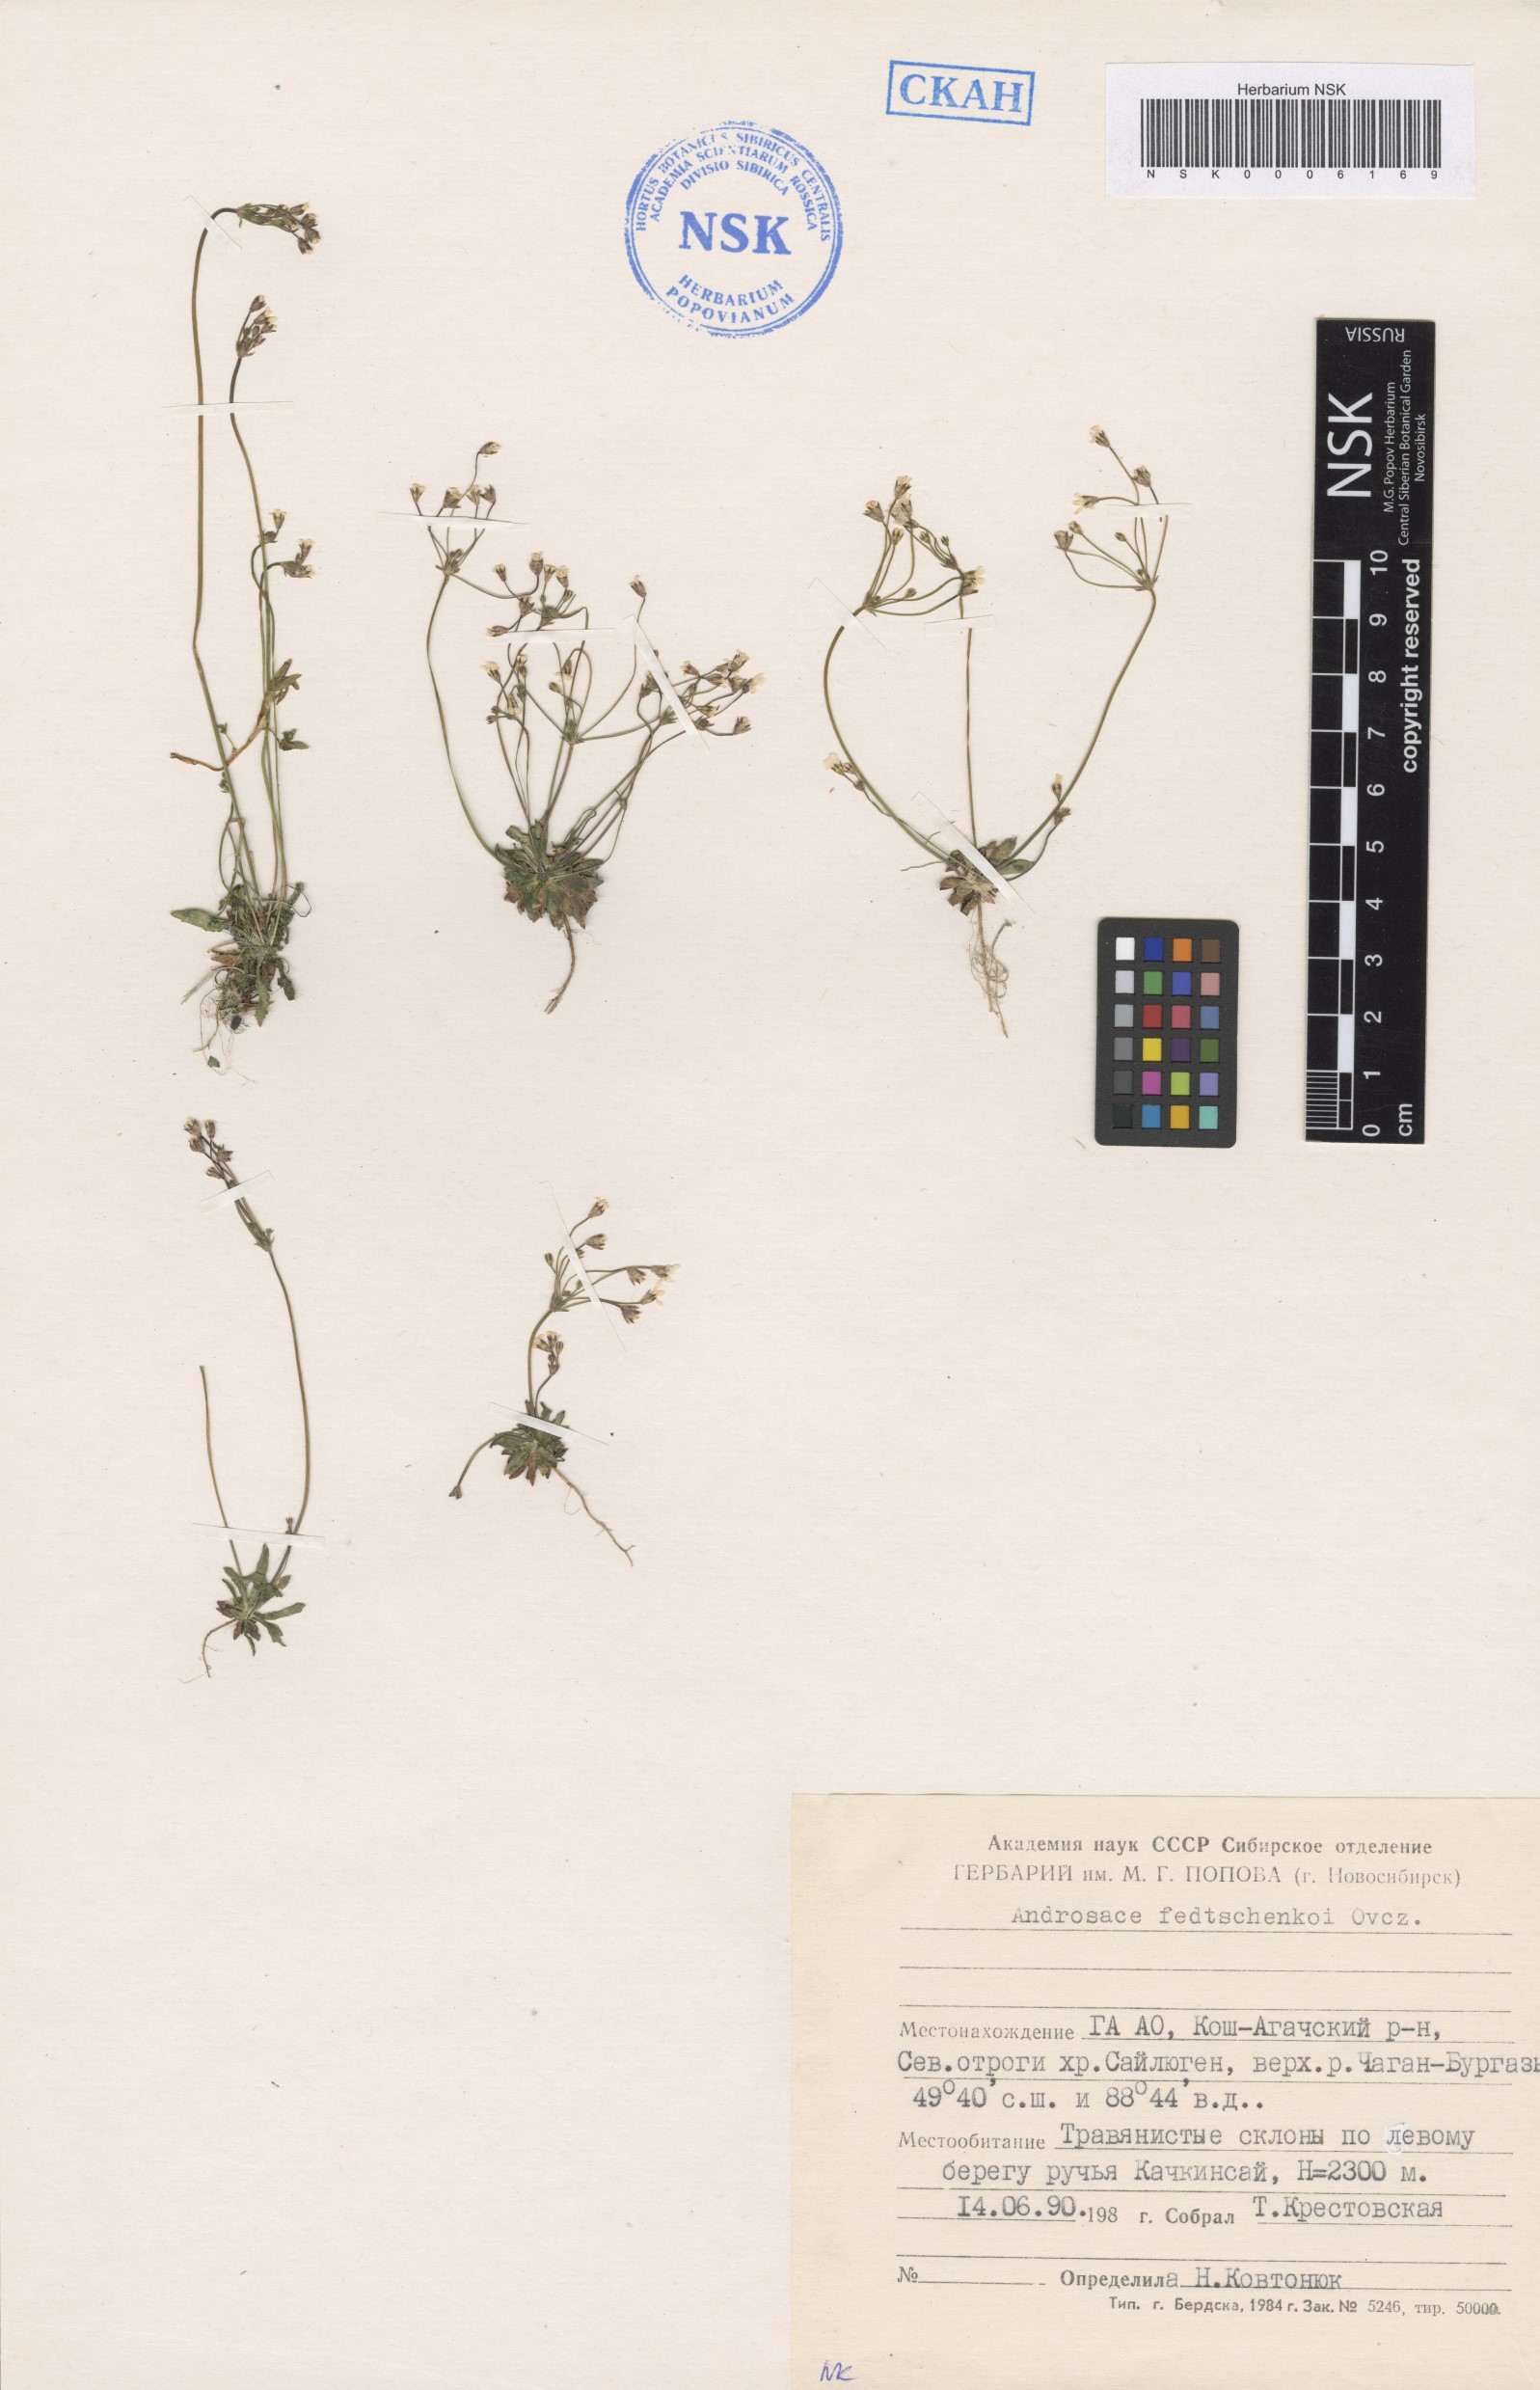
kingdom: Plantae
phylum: Tracheophyta
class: Magnoliopsida
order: Ericales
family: Primulaceae
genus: Androsace
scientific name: Androsace fedtschenkoi
